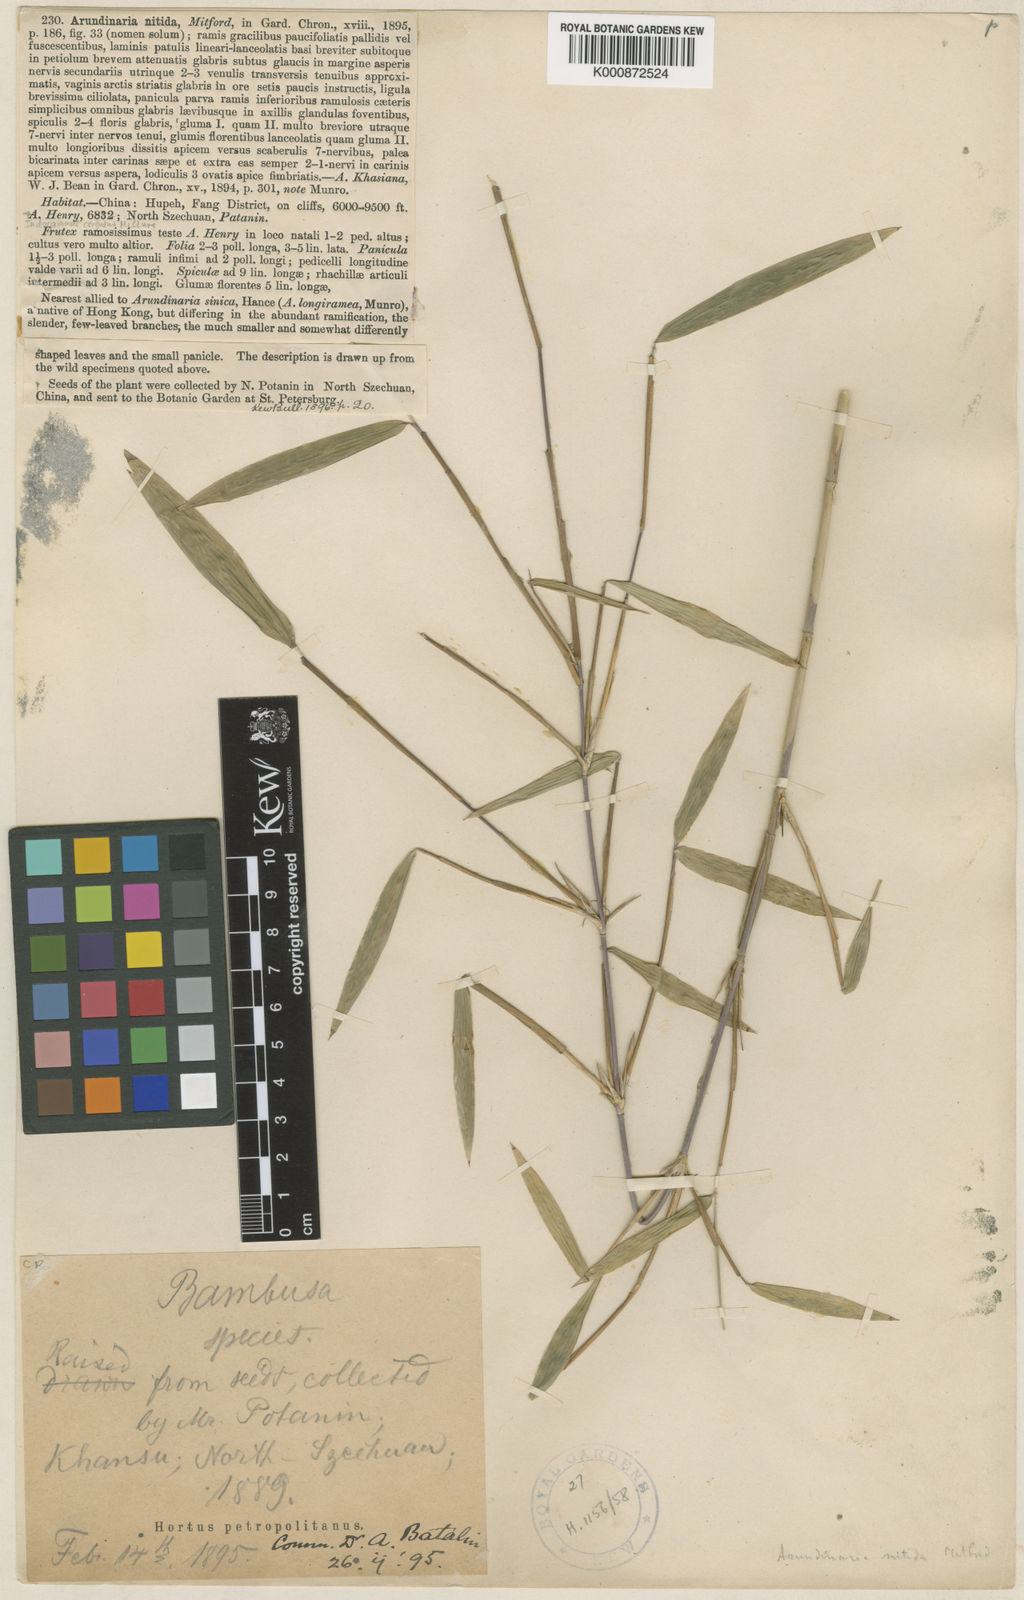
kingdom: Plantae
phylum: Tracheophyta
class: Liliopsida
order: Poales
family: Poaceae
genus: Fargesia
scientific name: Fargesia nitida ex
